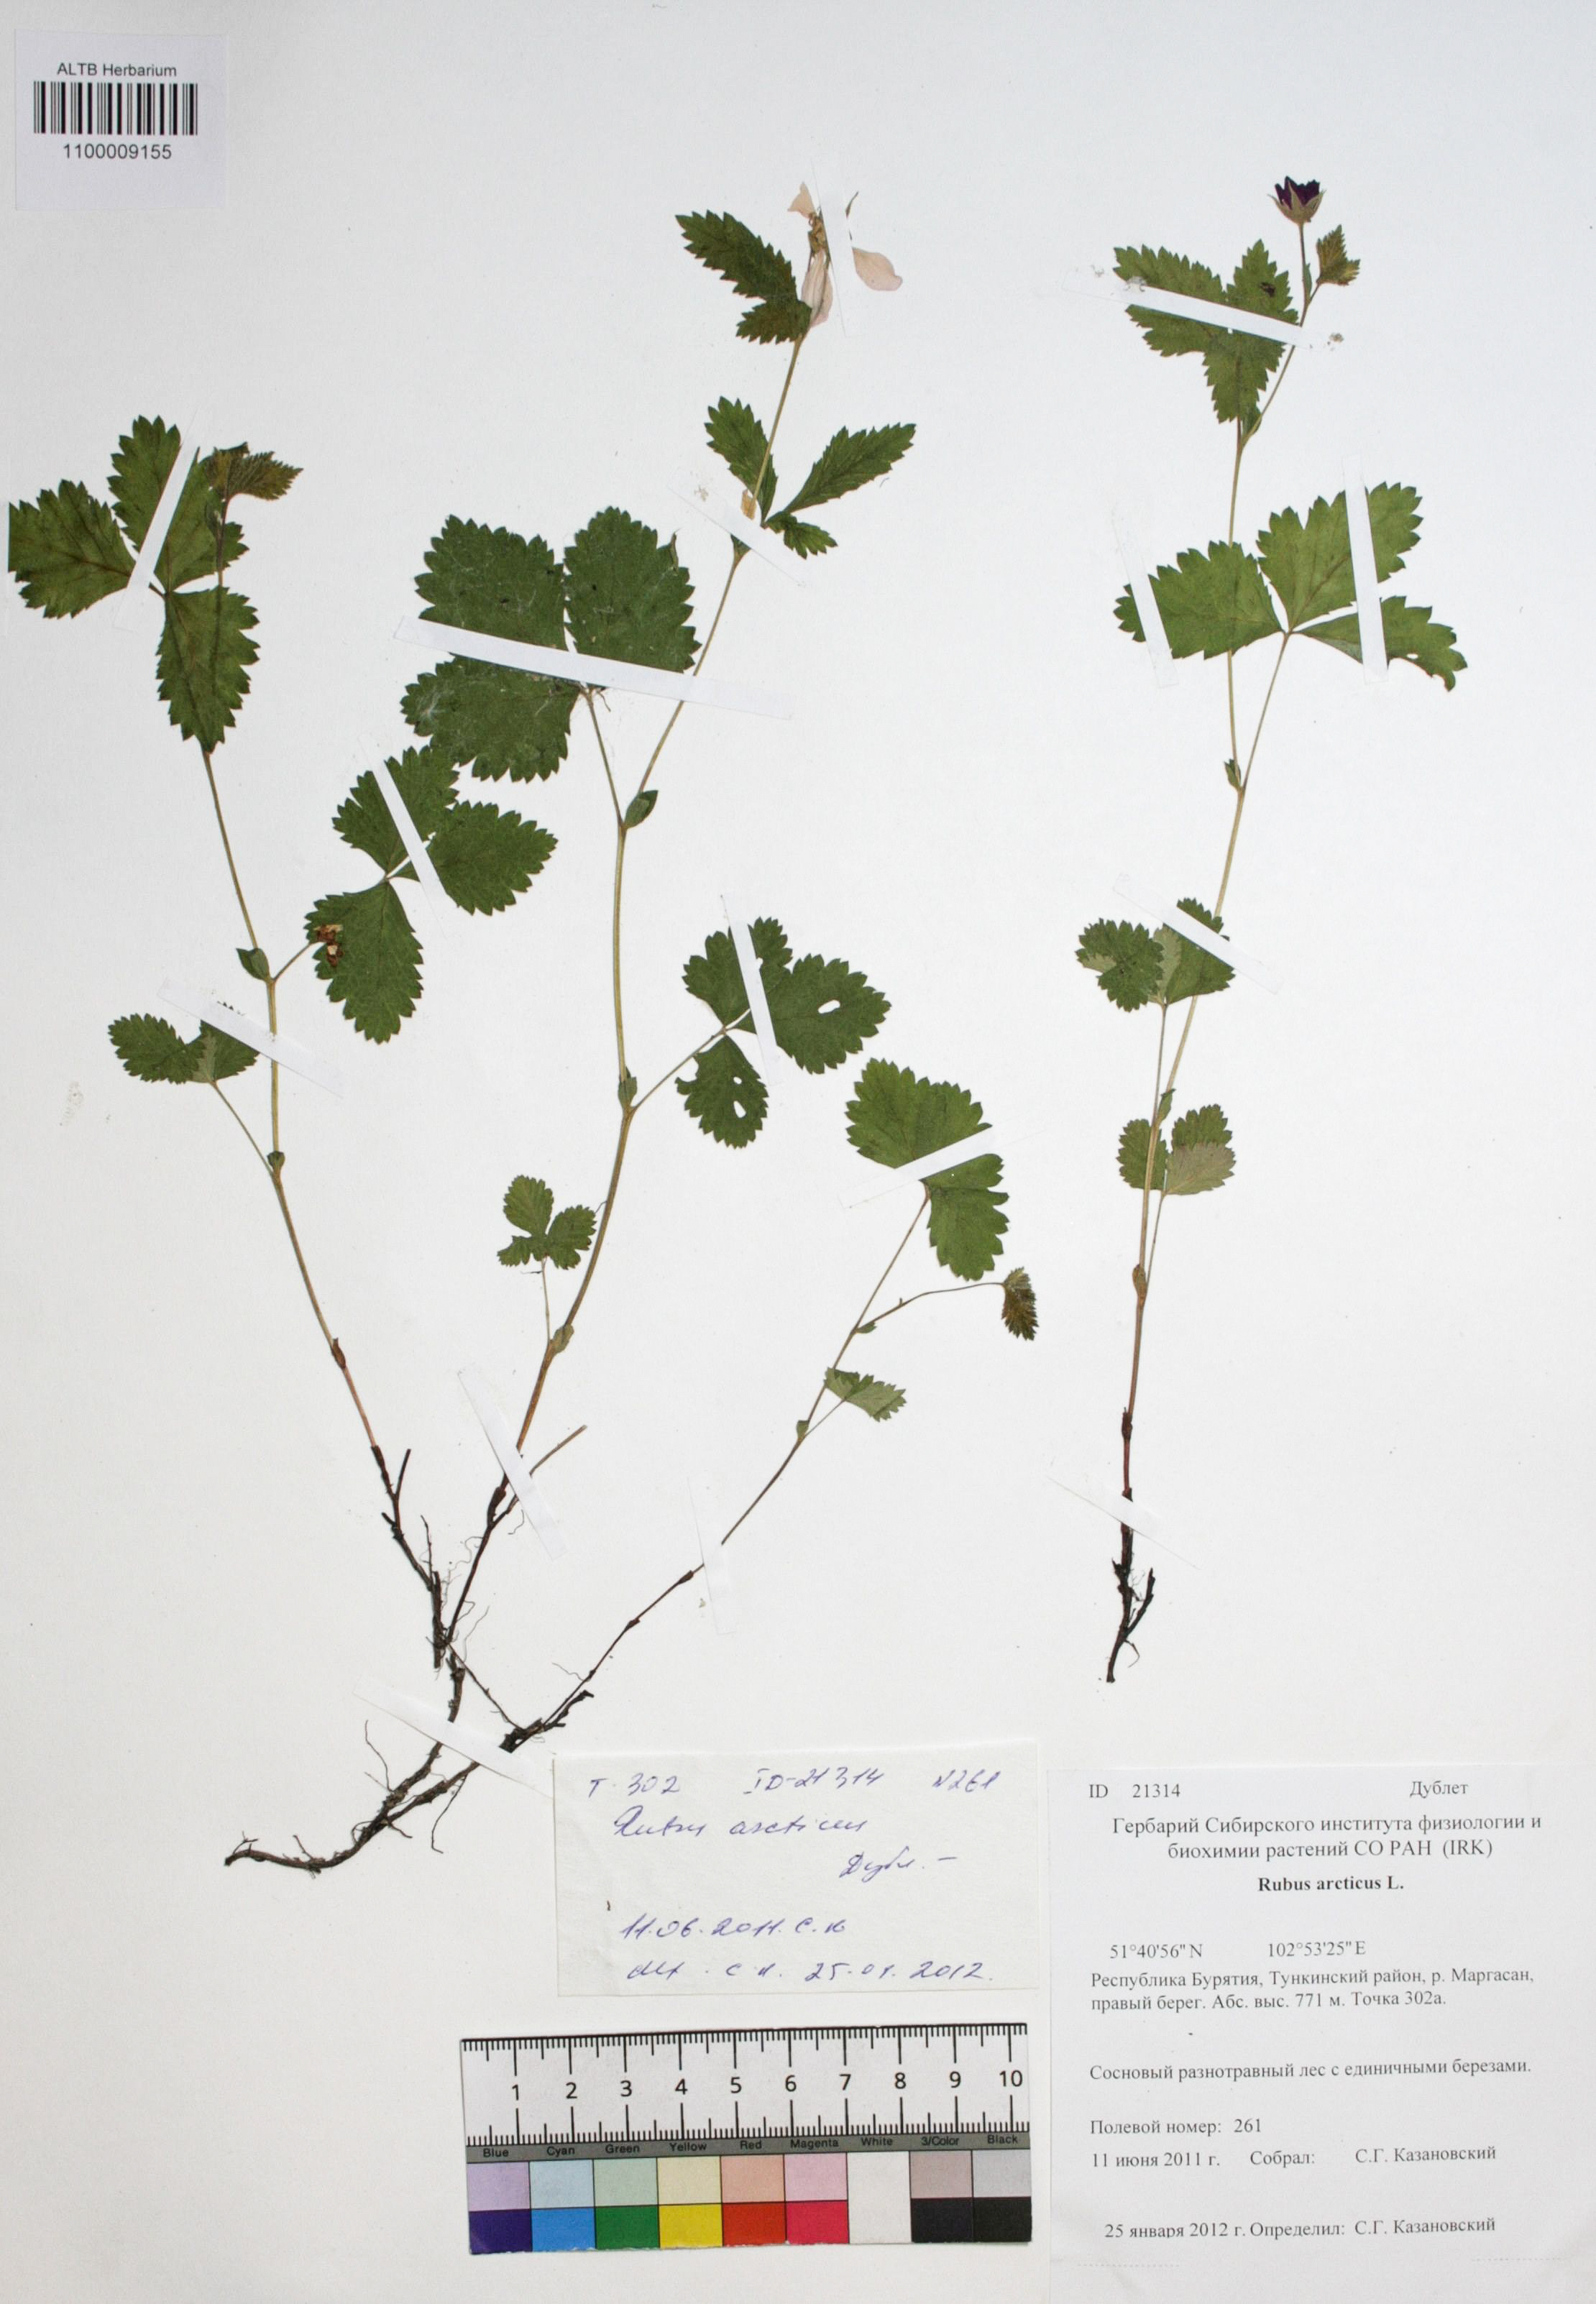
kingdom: Plantae
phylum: Tracheophyta
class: Magnoliopsida
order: Rosales
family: Rosaceae
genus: Rubus
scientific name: Rubus arcticus
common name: Arctic bramble
